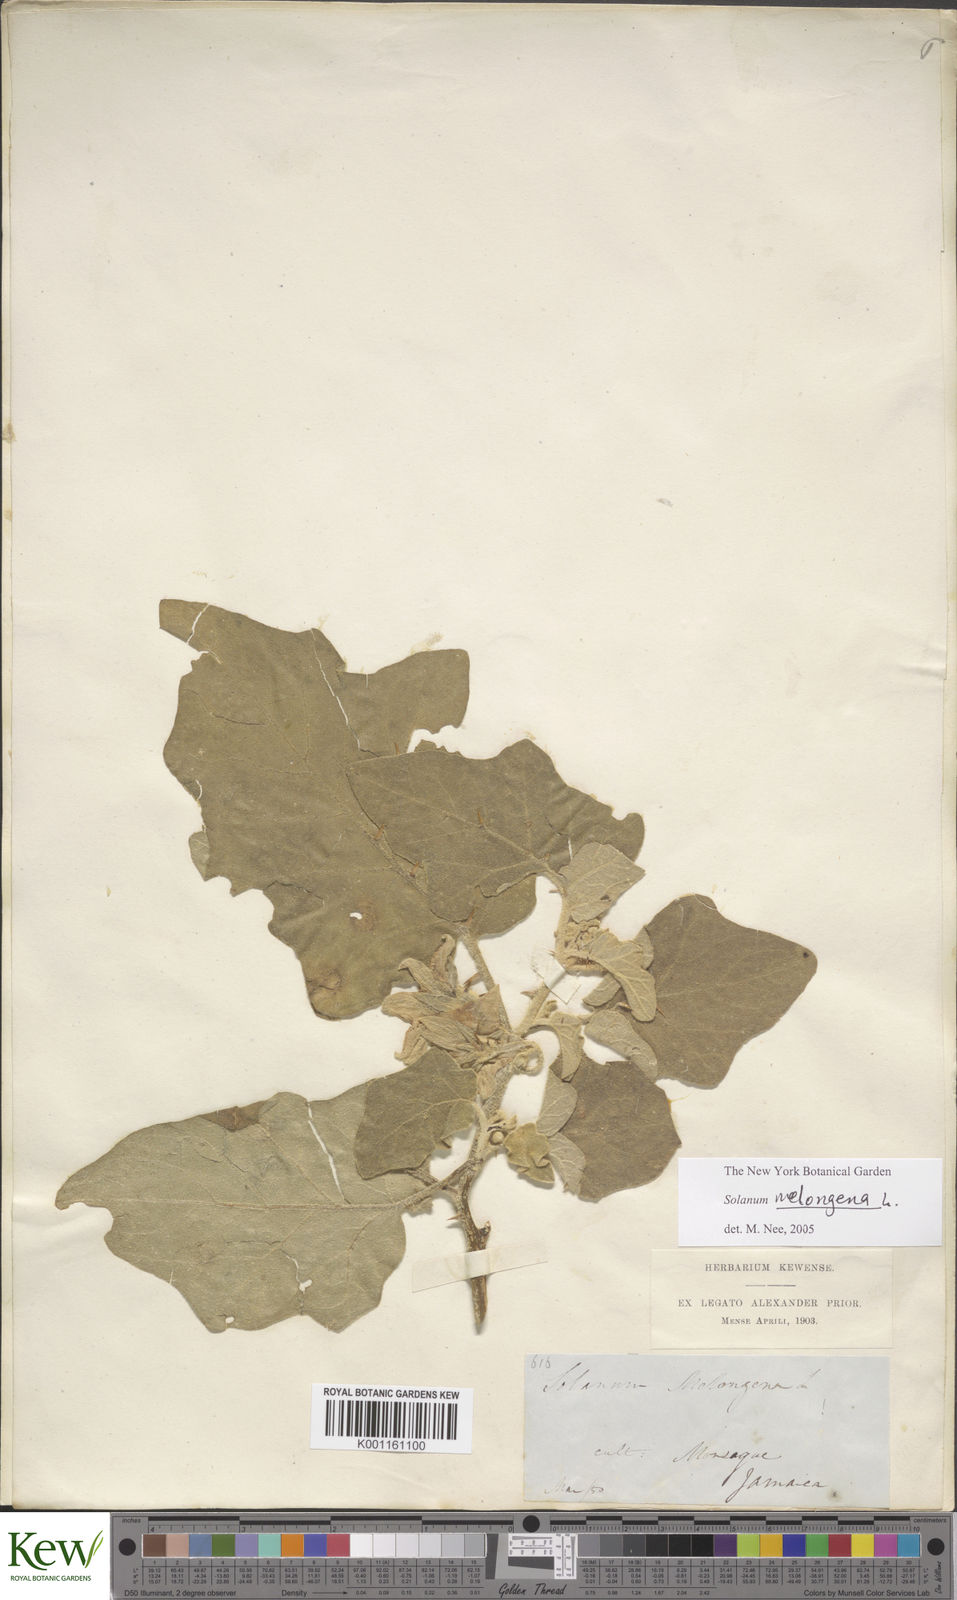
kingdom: Plantae
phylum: Tracheophyta
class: Magnoliopsida
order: Solanales
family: Solanaceae
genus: Solanum
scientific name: Solanum melongena
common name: Eggplant
